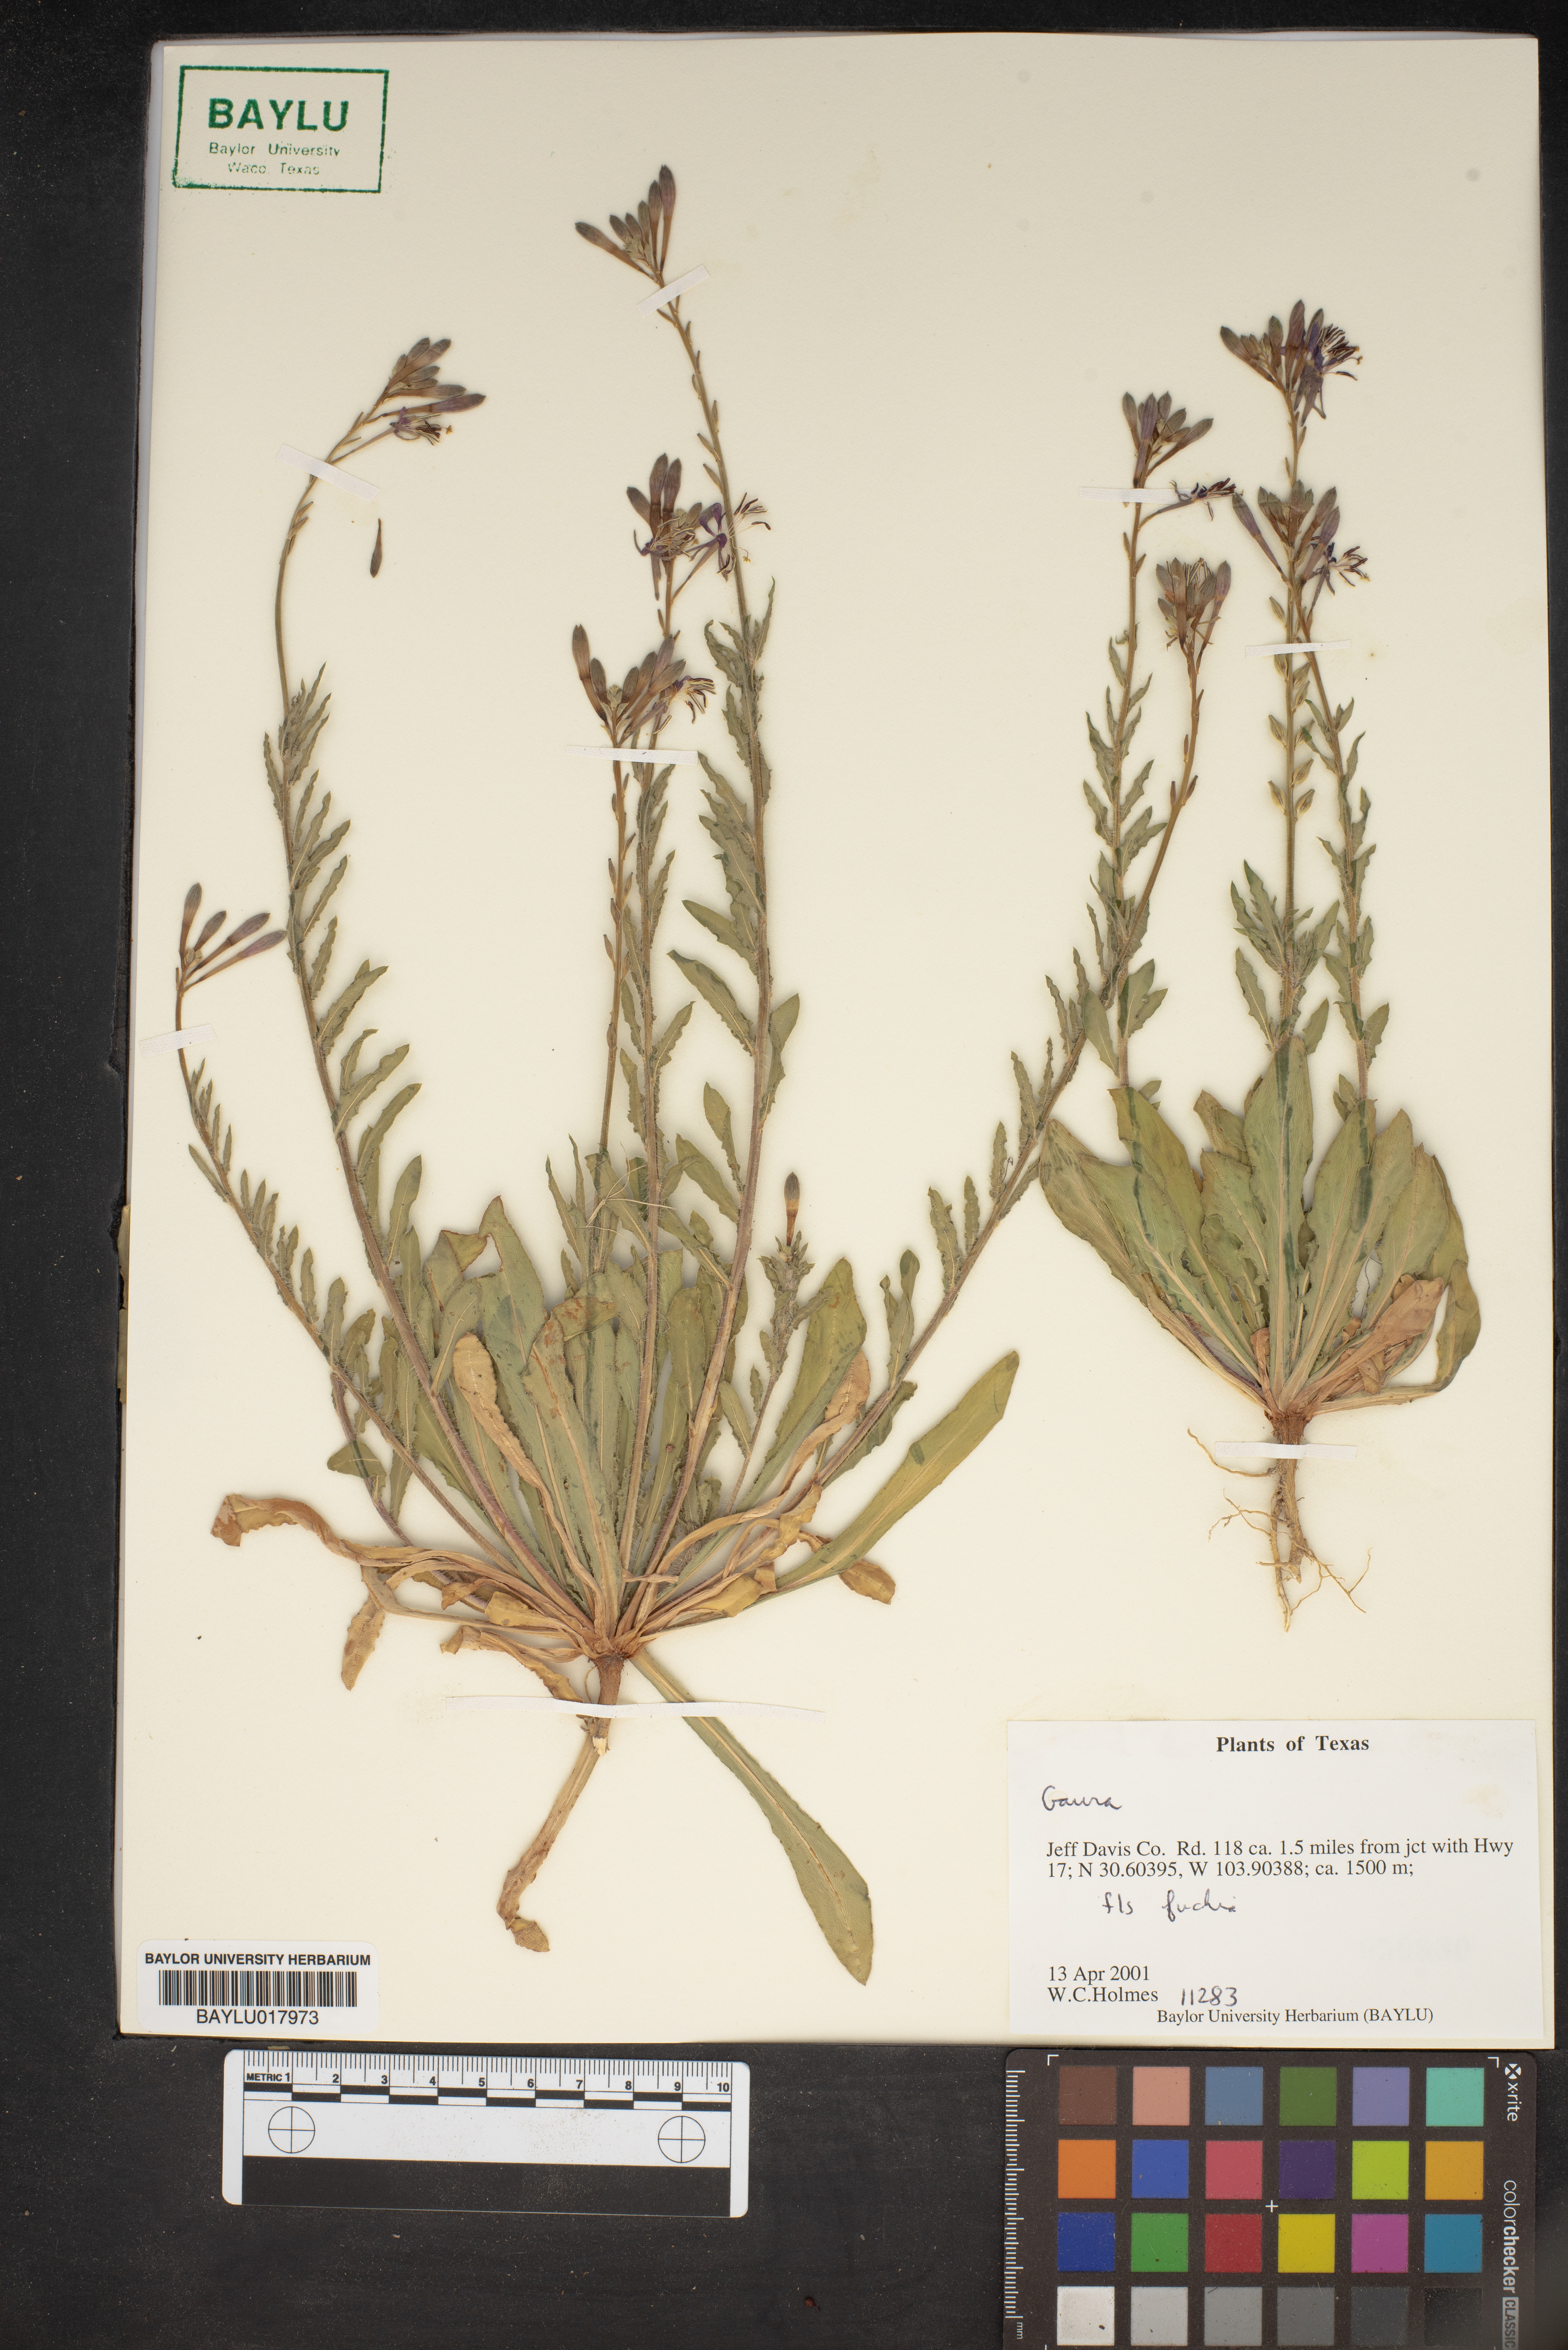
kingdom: Plantae
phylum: Tracheophyta
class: Magnoliopsida
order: Myrtales
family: Onagraceae
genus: Oenothera
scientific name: Oenothera
